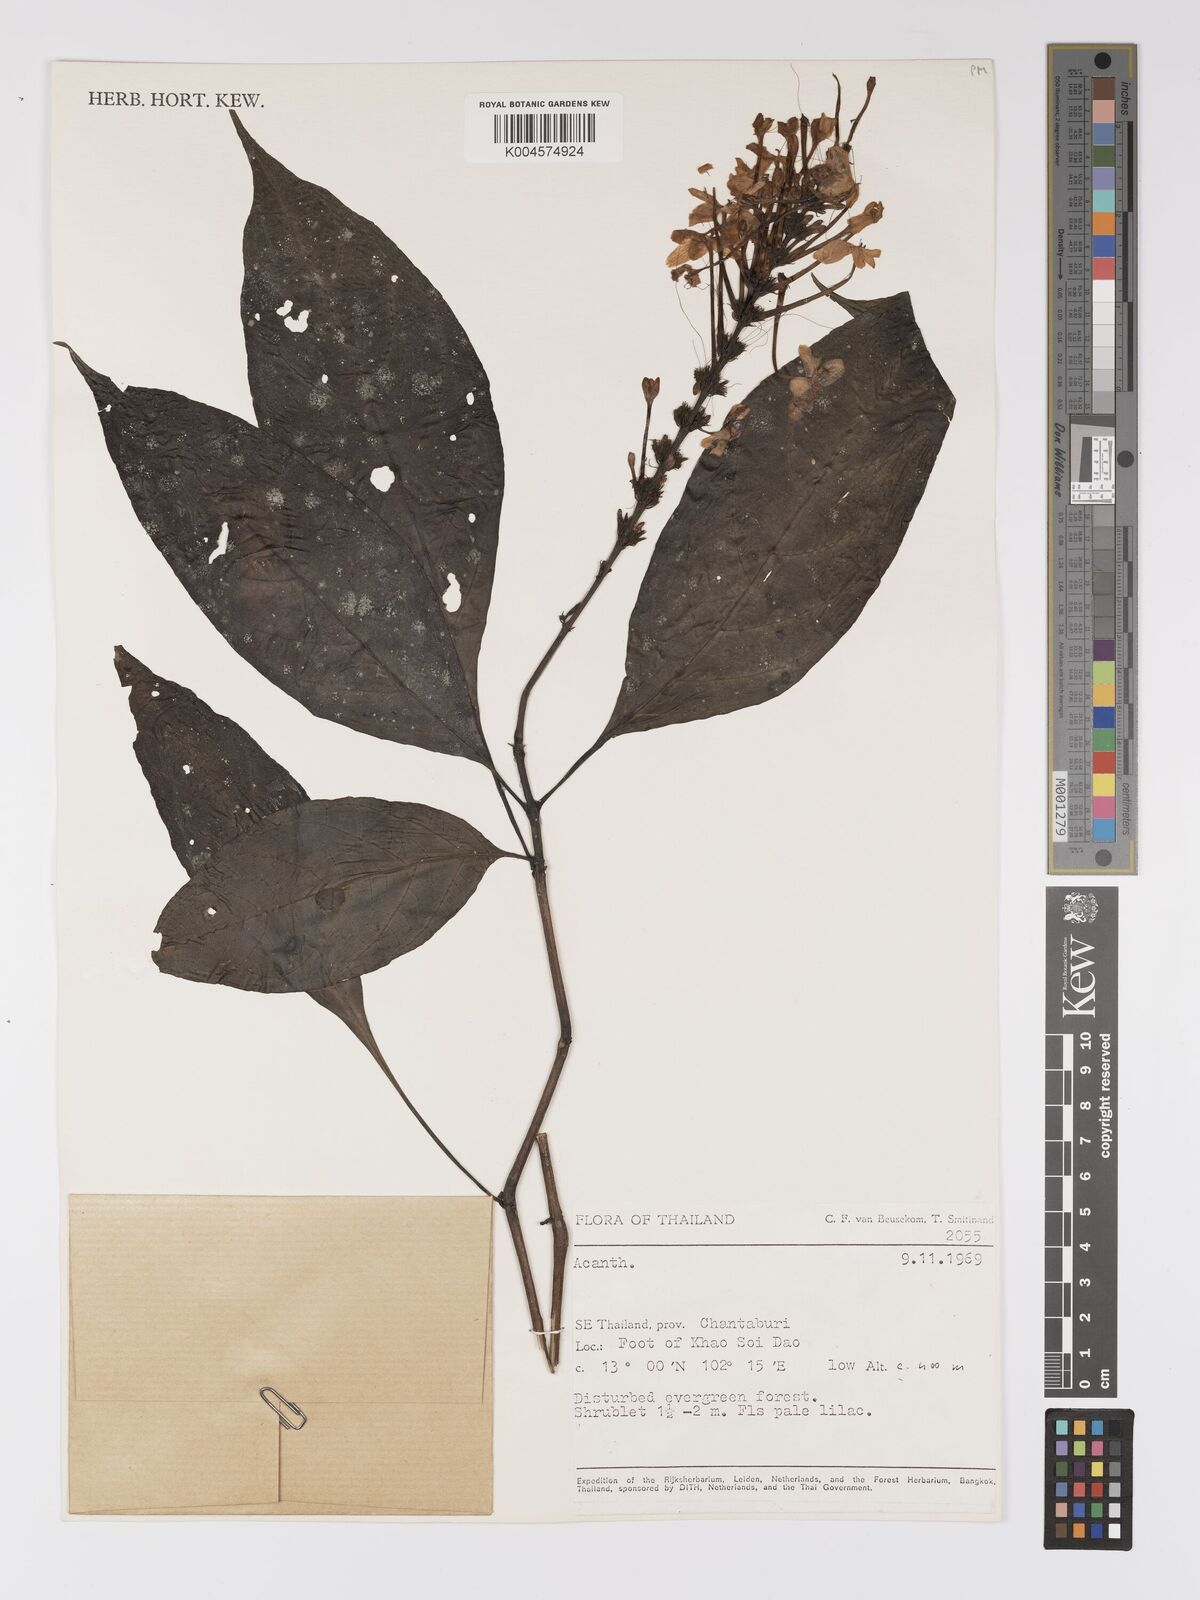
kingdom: Plantae
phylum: Tracheophyta
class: Magnoliopsida
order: Lamiales
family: Acanthaceae
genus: Pseuderanthemum
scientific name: Pseuderanthemum
